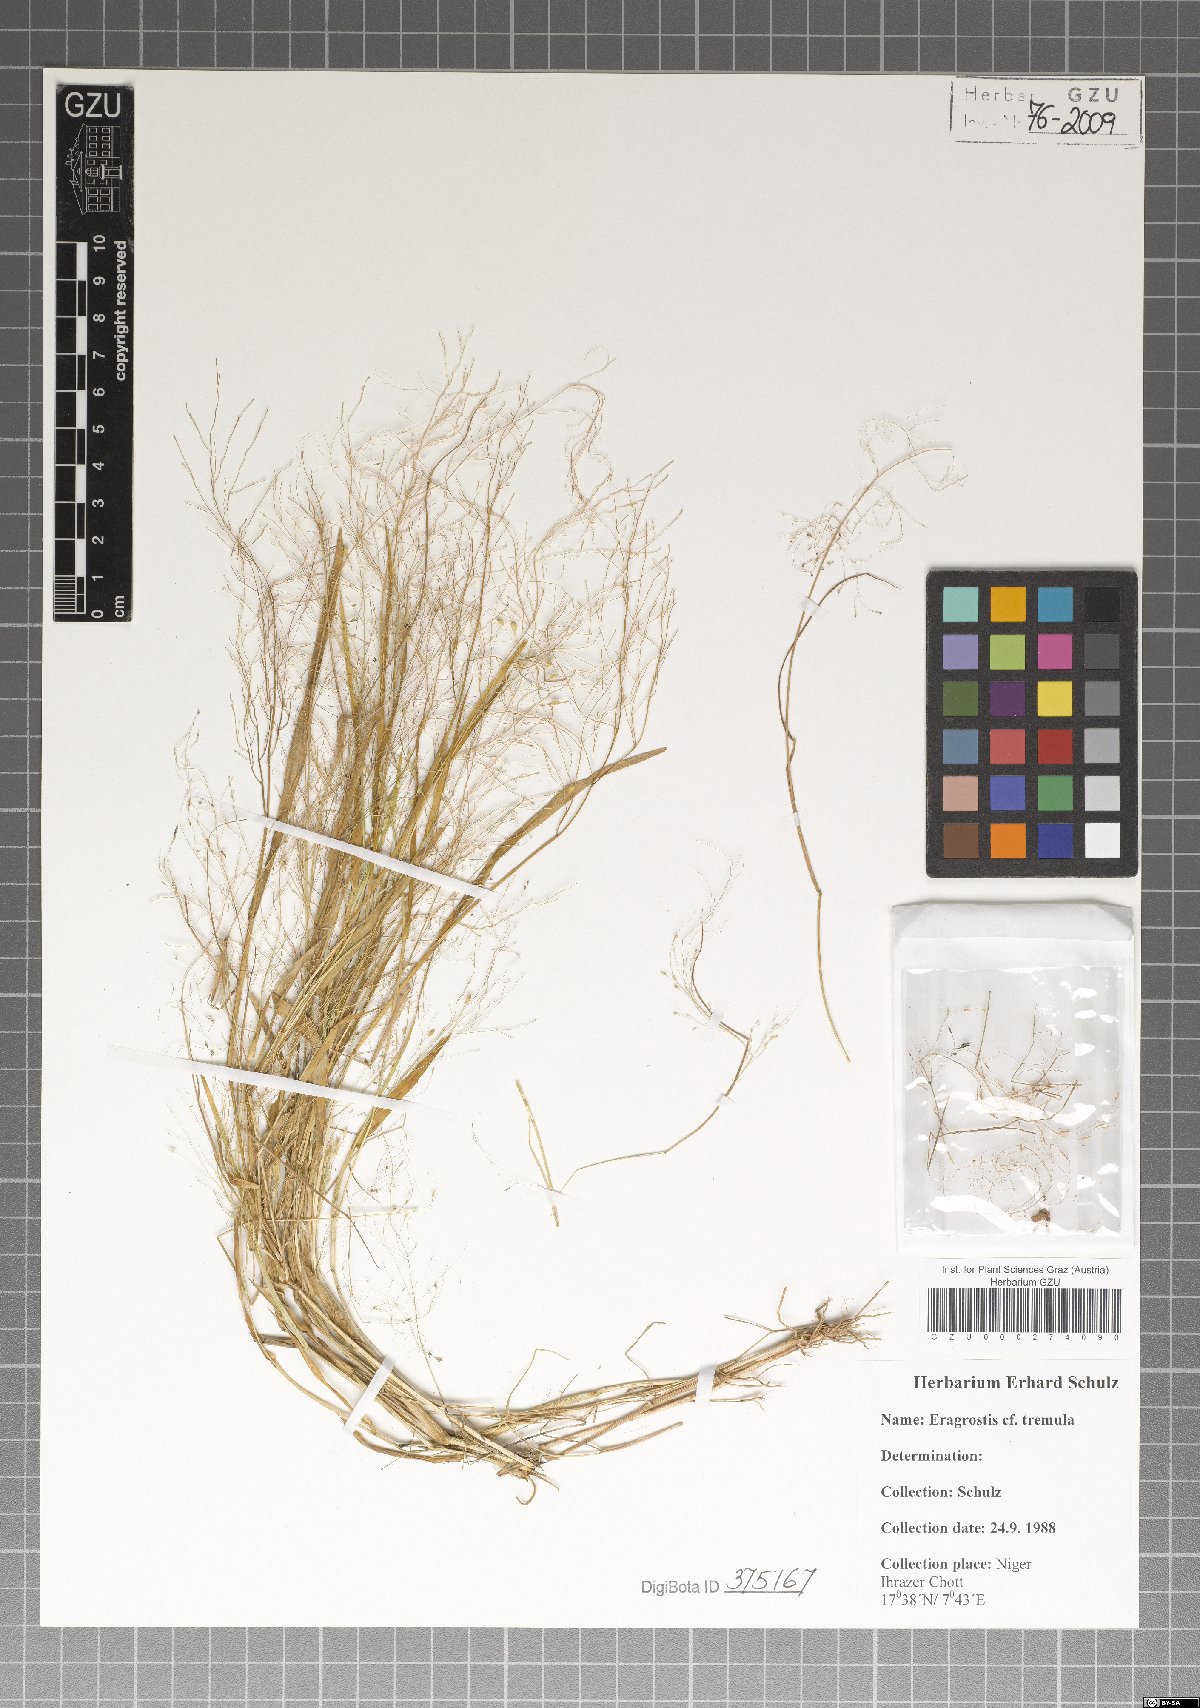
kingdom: Plantae
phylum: Tracheophyta
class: Liliopsida
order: Poales
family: Poaceae
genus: Eragrostis
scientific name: Eragrostis tremula
